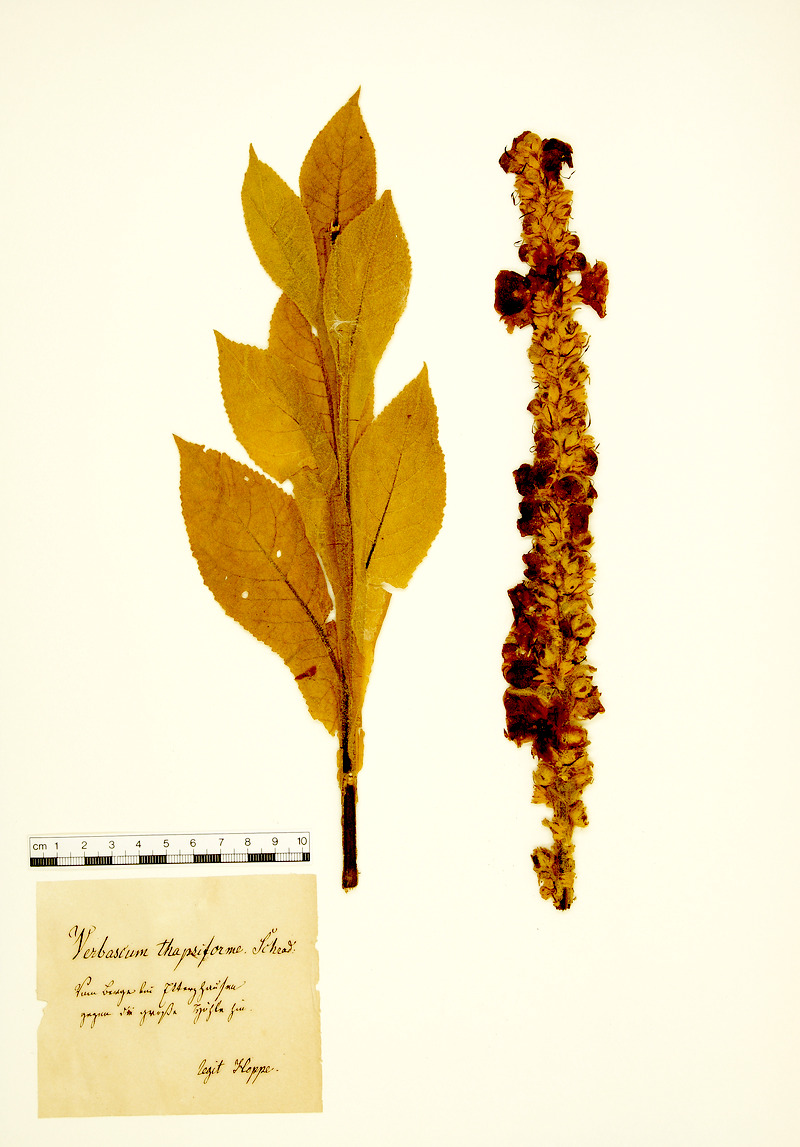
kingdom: Plantae
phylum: Tracheophyta
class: Magnoliopsida
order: Lamiales
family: Scrophulariaceae
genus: Verbascum
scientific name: Verbascum densiflorum
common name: Dense-flowered mullein
